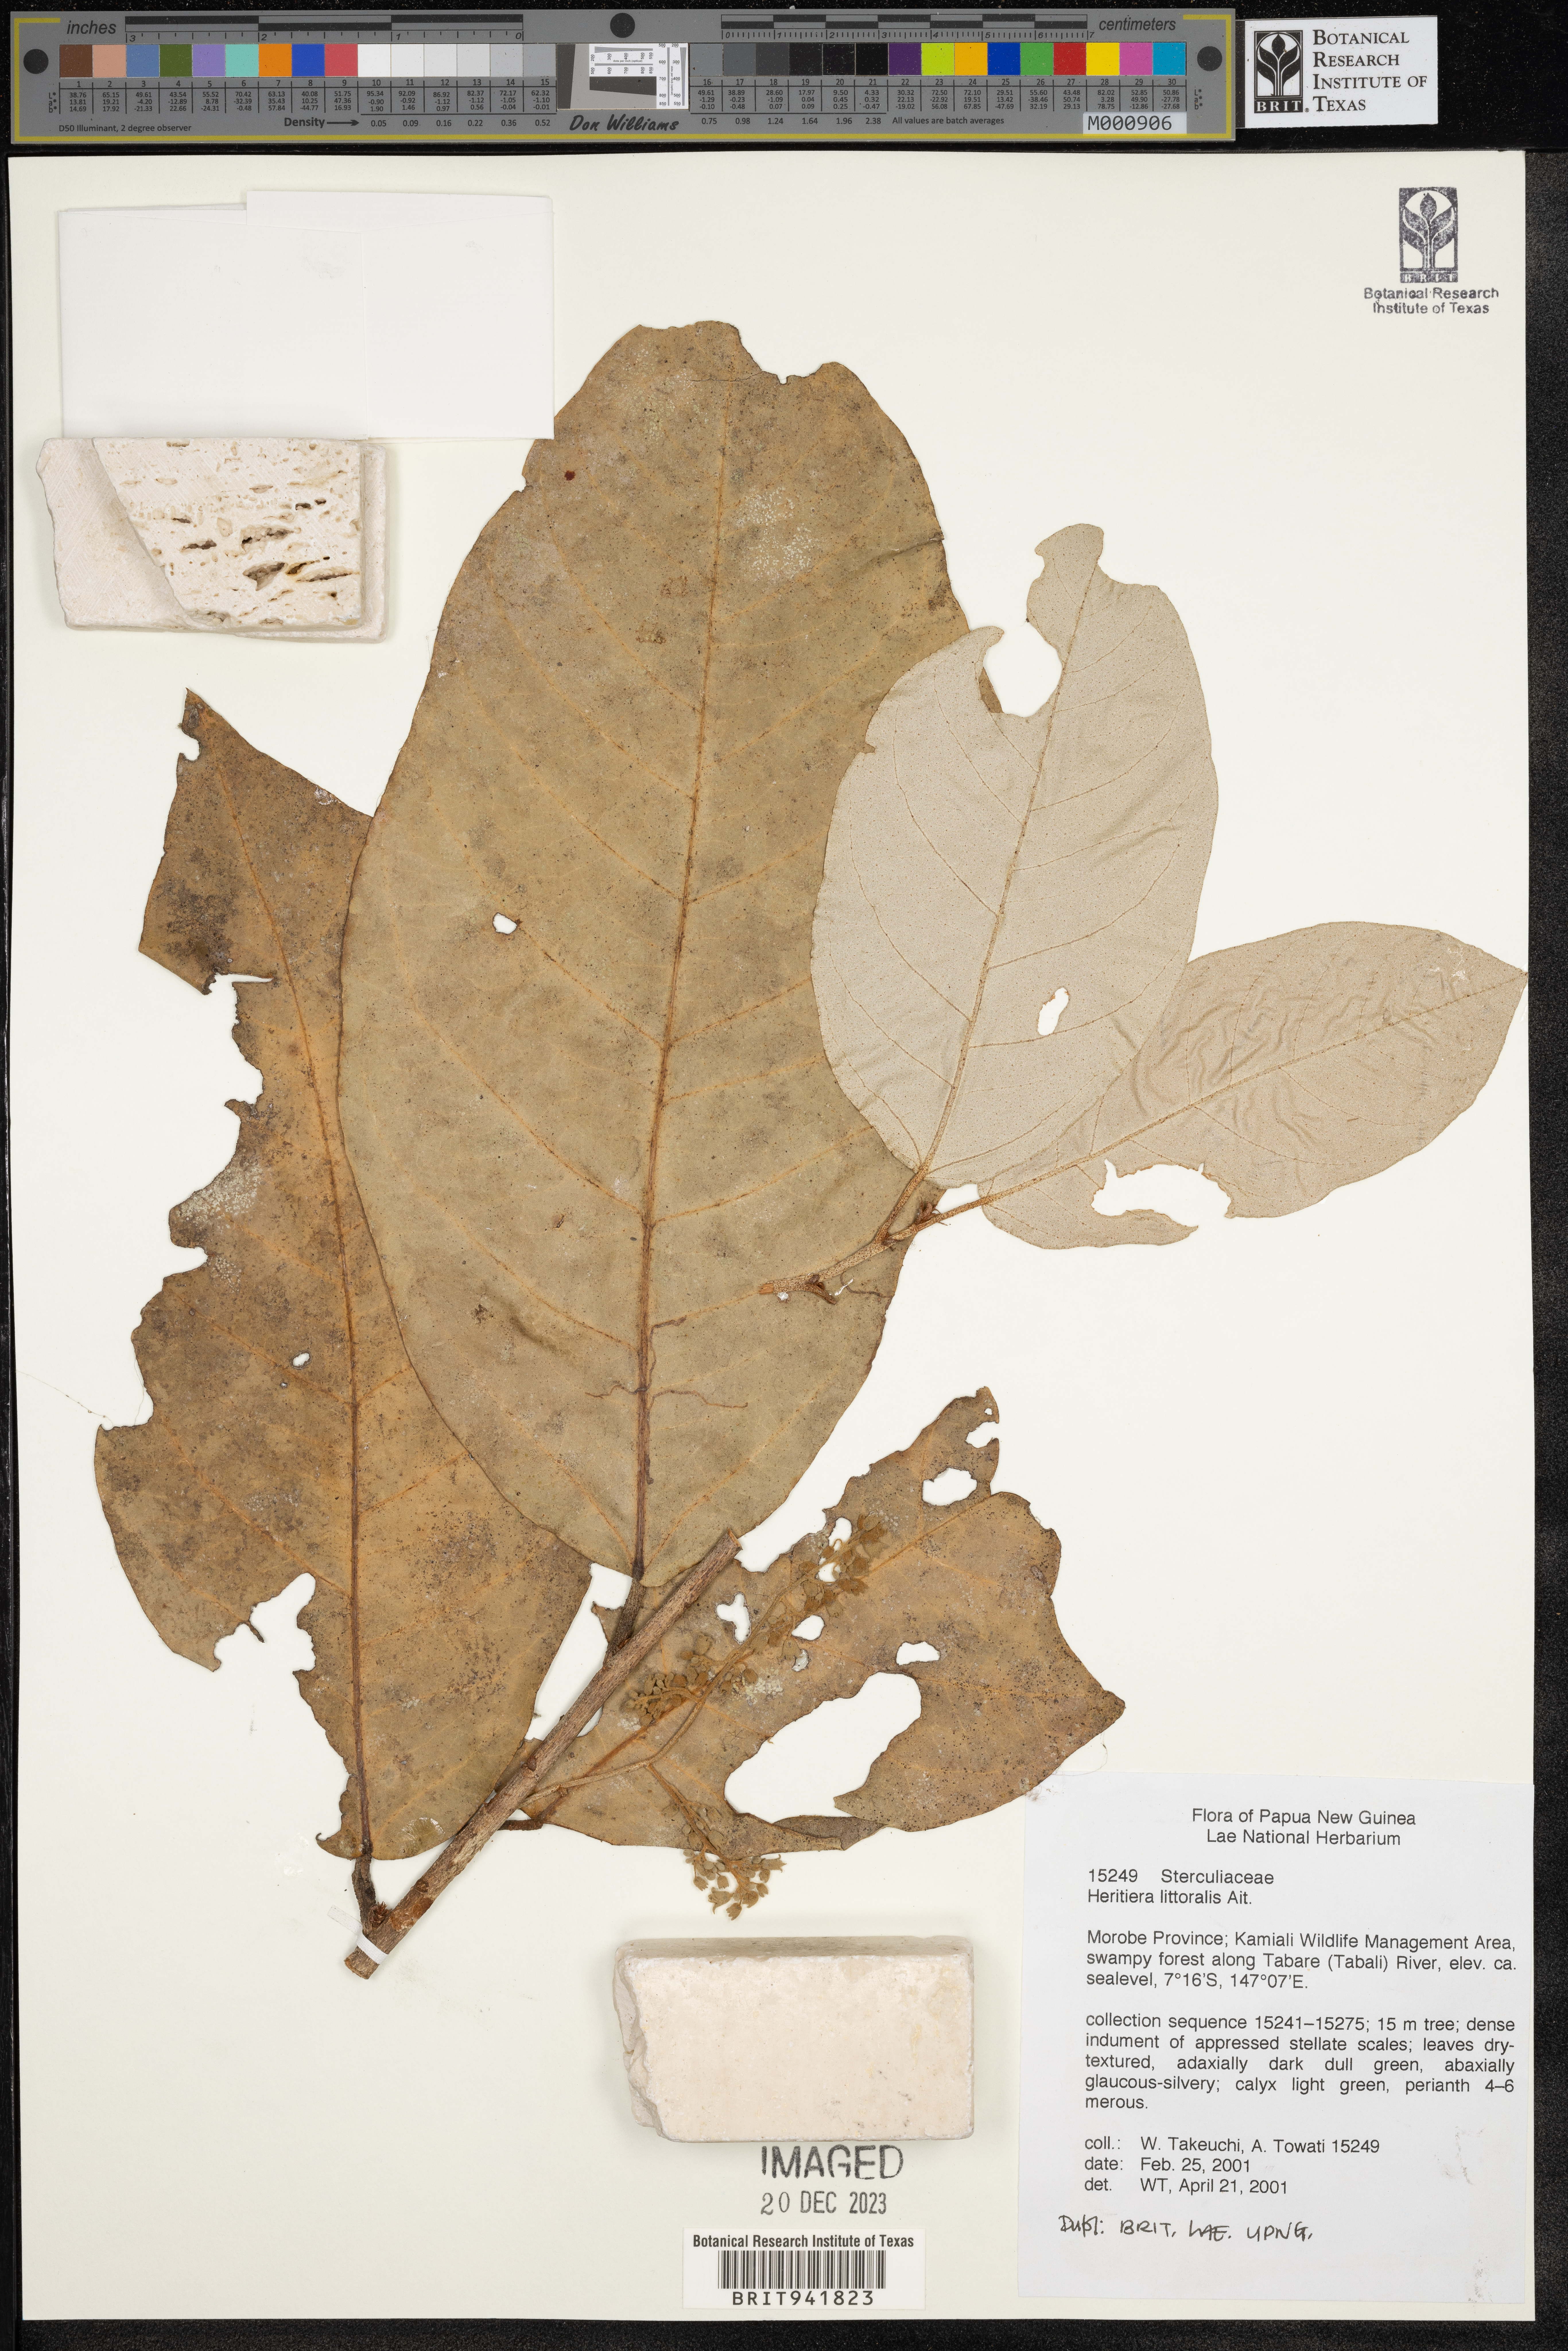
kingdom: Plantae
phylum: Tracheophyta
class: Magnoliopsida
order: Malvales
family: Malvaceae
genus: Heritiera
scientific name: Heritiera
